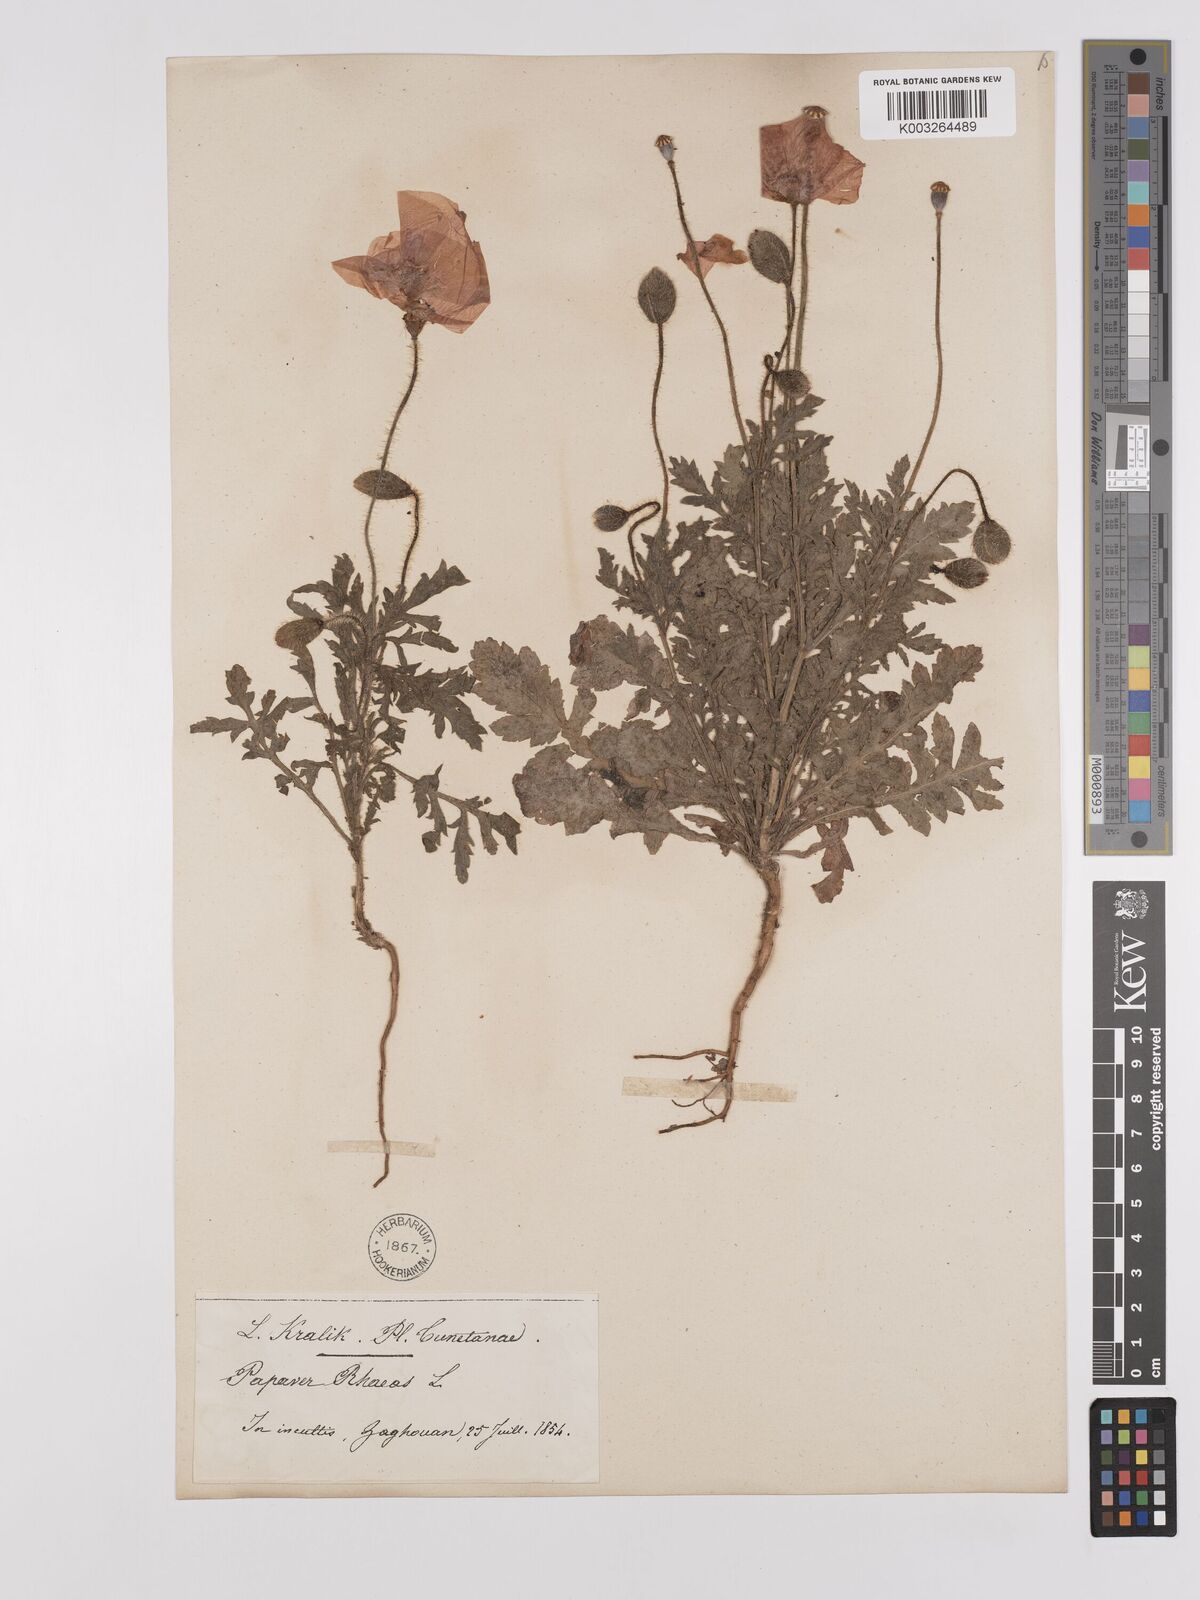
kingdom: Plantae
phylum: Tracheophyta
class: Magnoliopsida
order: Ranunculales
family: Papaveraceae
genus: Papaver
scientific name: Papaver rhoeas
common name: Corn poppy
